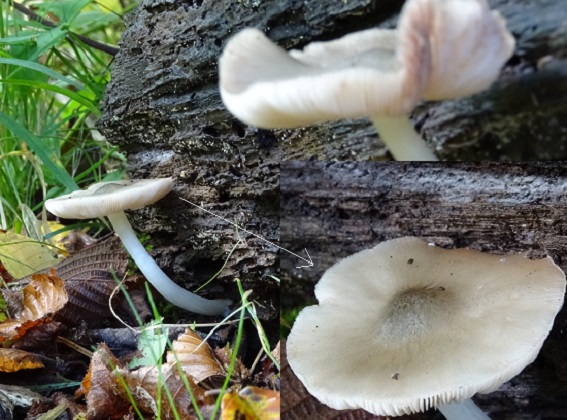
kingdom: Fungi
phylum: Basidiomycota
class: Agaricomycetes
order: Agaricales
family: Pluteaceae
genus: Pluteus
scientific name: Pluteus salicinus
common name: stiv skærmhat
